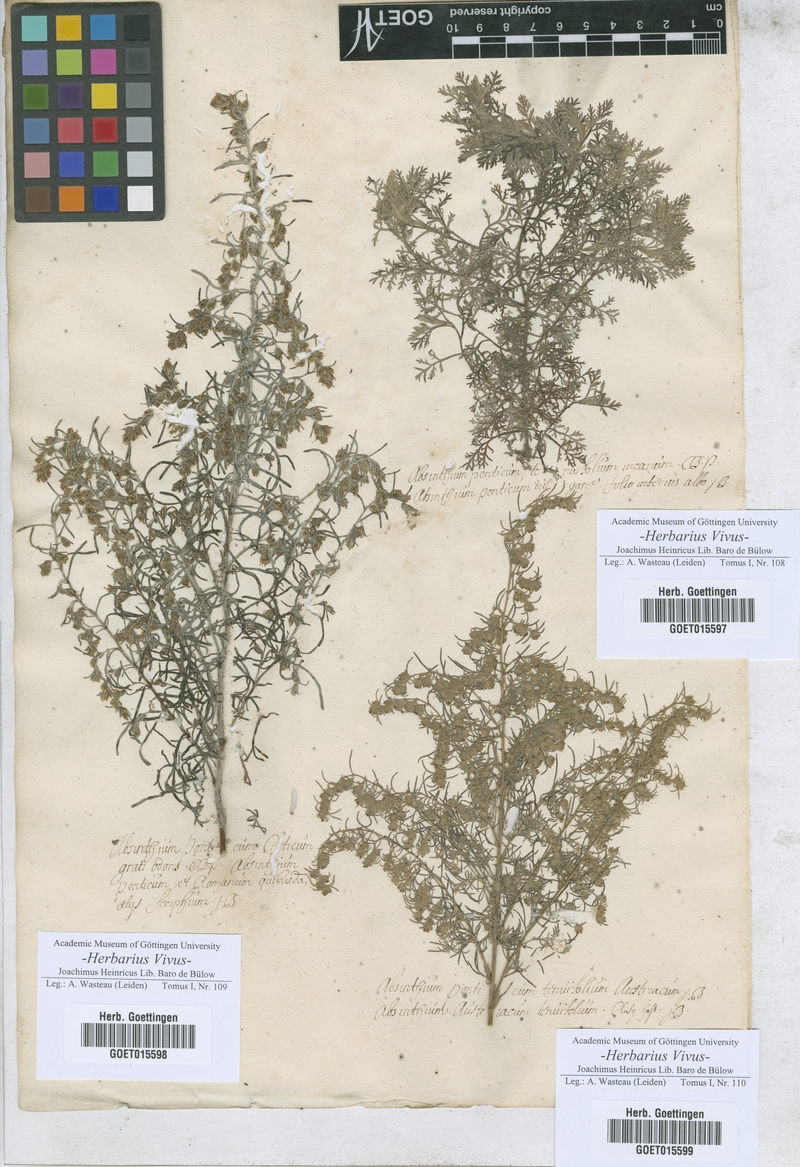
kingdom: Plantae
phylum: Tracheophyta
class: Magnoliopsida
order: Asterales
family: Asteraceae
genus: Artemisia
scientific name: Artemisia pontica
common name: Roman wormwood
